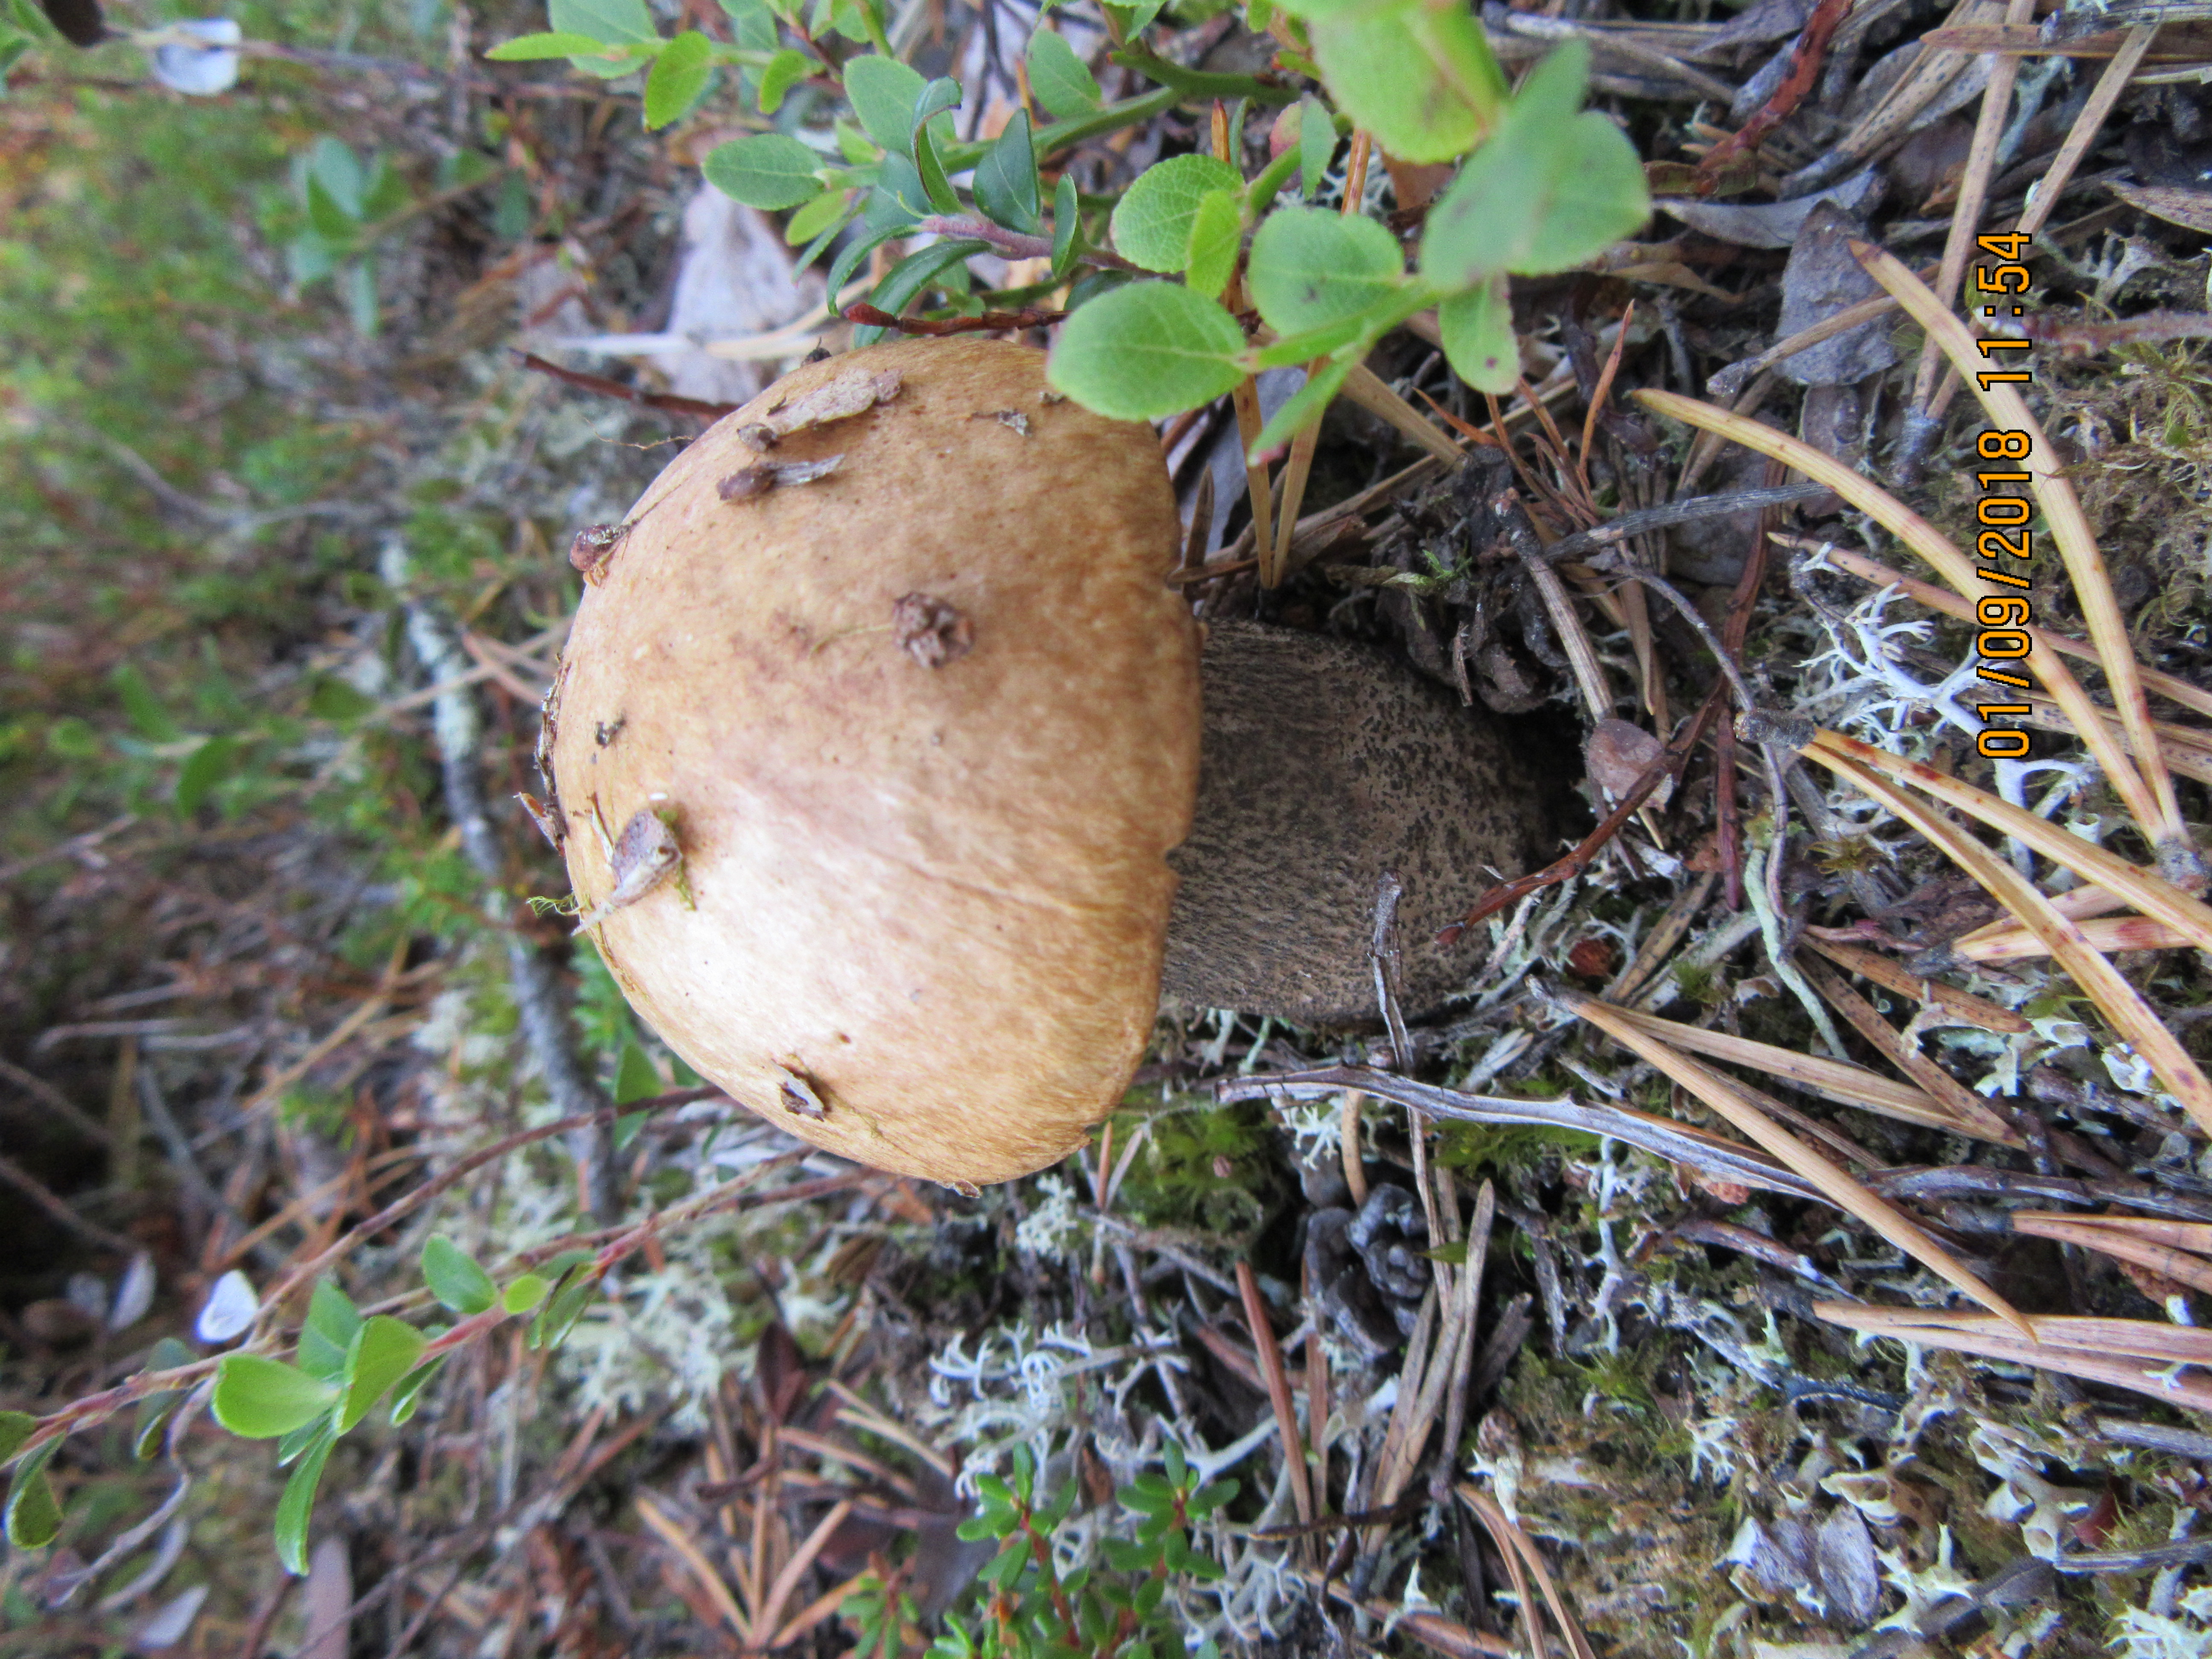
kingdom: Fungi
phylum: Basidiomycota
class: Agaricomycetes
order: Boletales
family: Boletaceae
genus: Leccinum
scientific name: Leccinum versipelle
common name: Orange birch bolete
